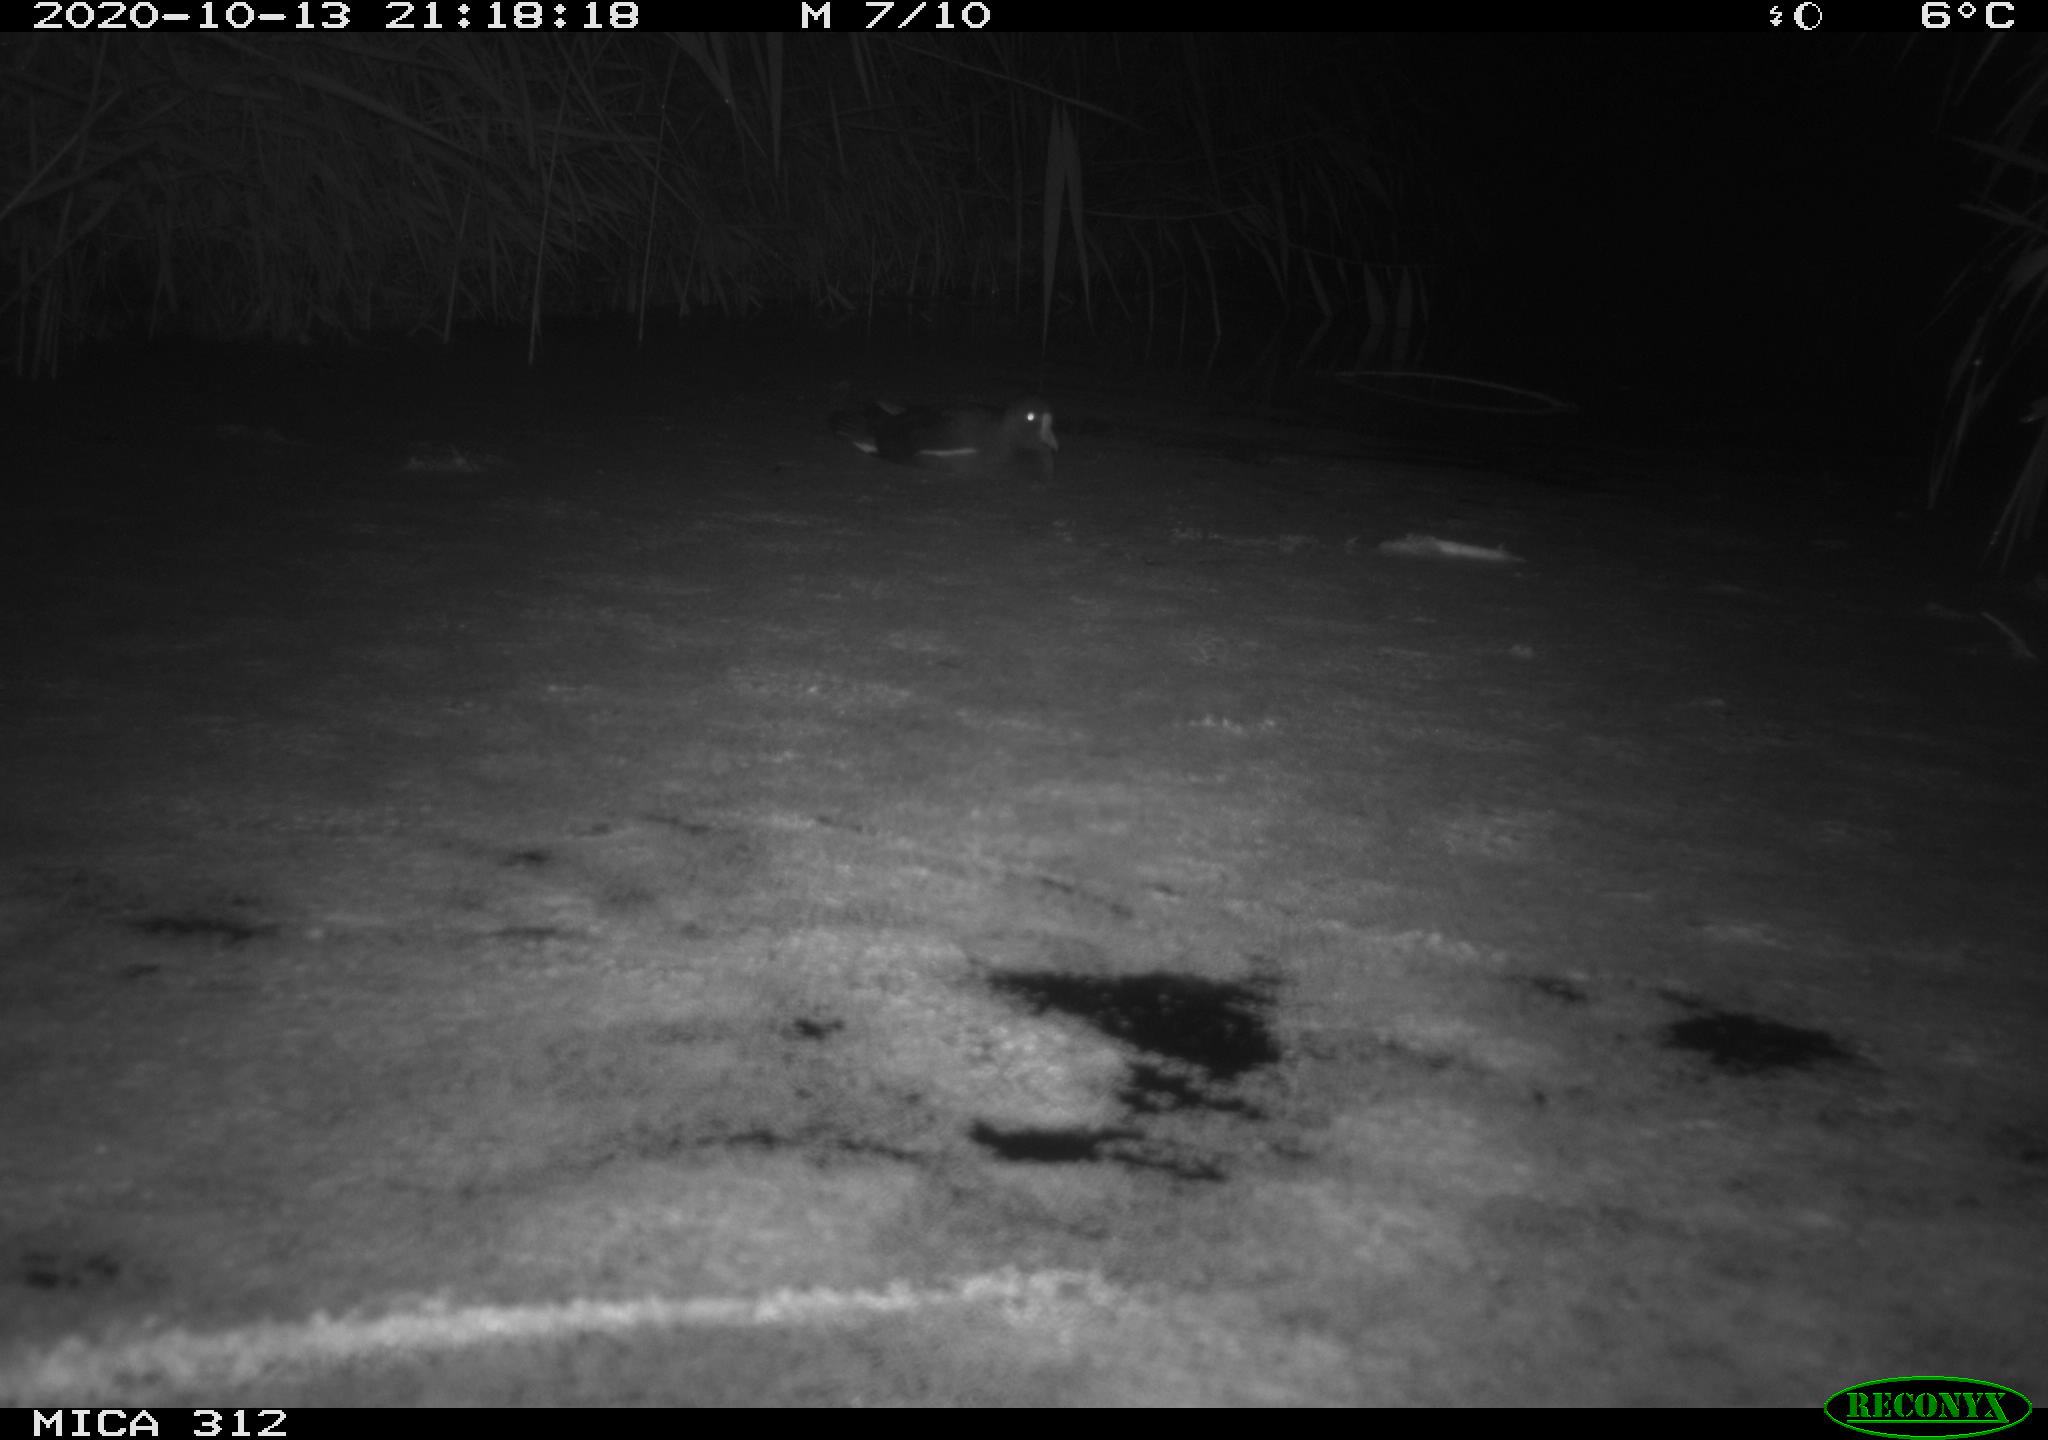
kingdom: Animalia
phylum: Chordata
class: Mammalia
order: Rodentia
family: Muridae
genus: Rattus
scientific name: Rattus norvegicus
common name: Brown rat
